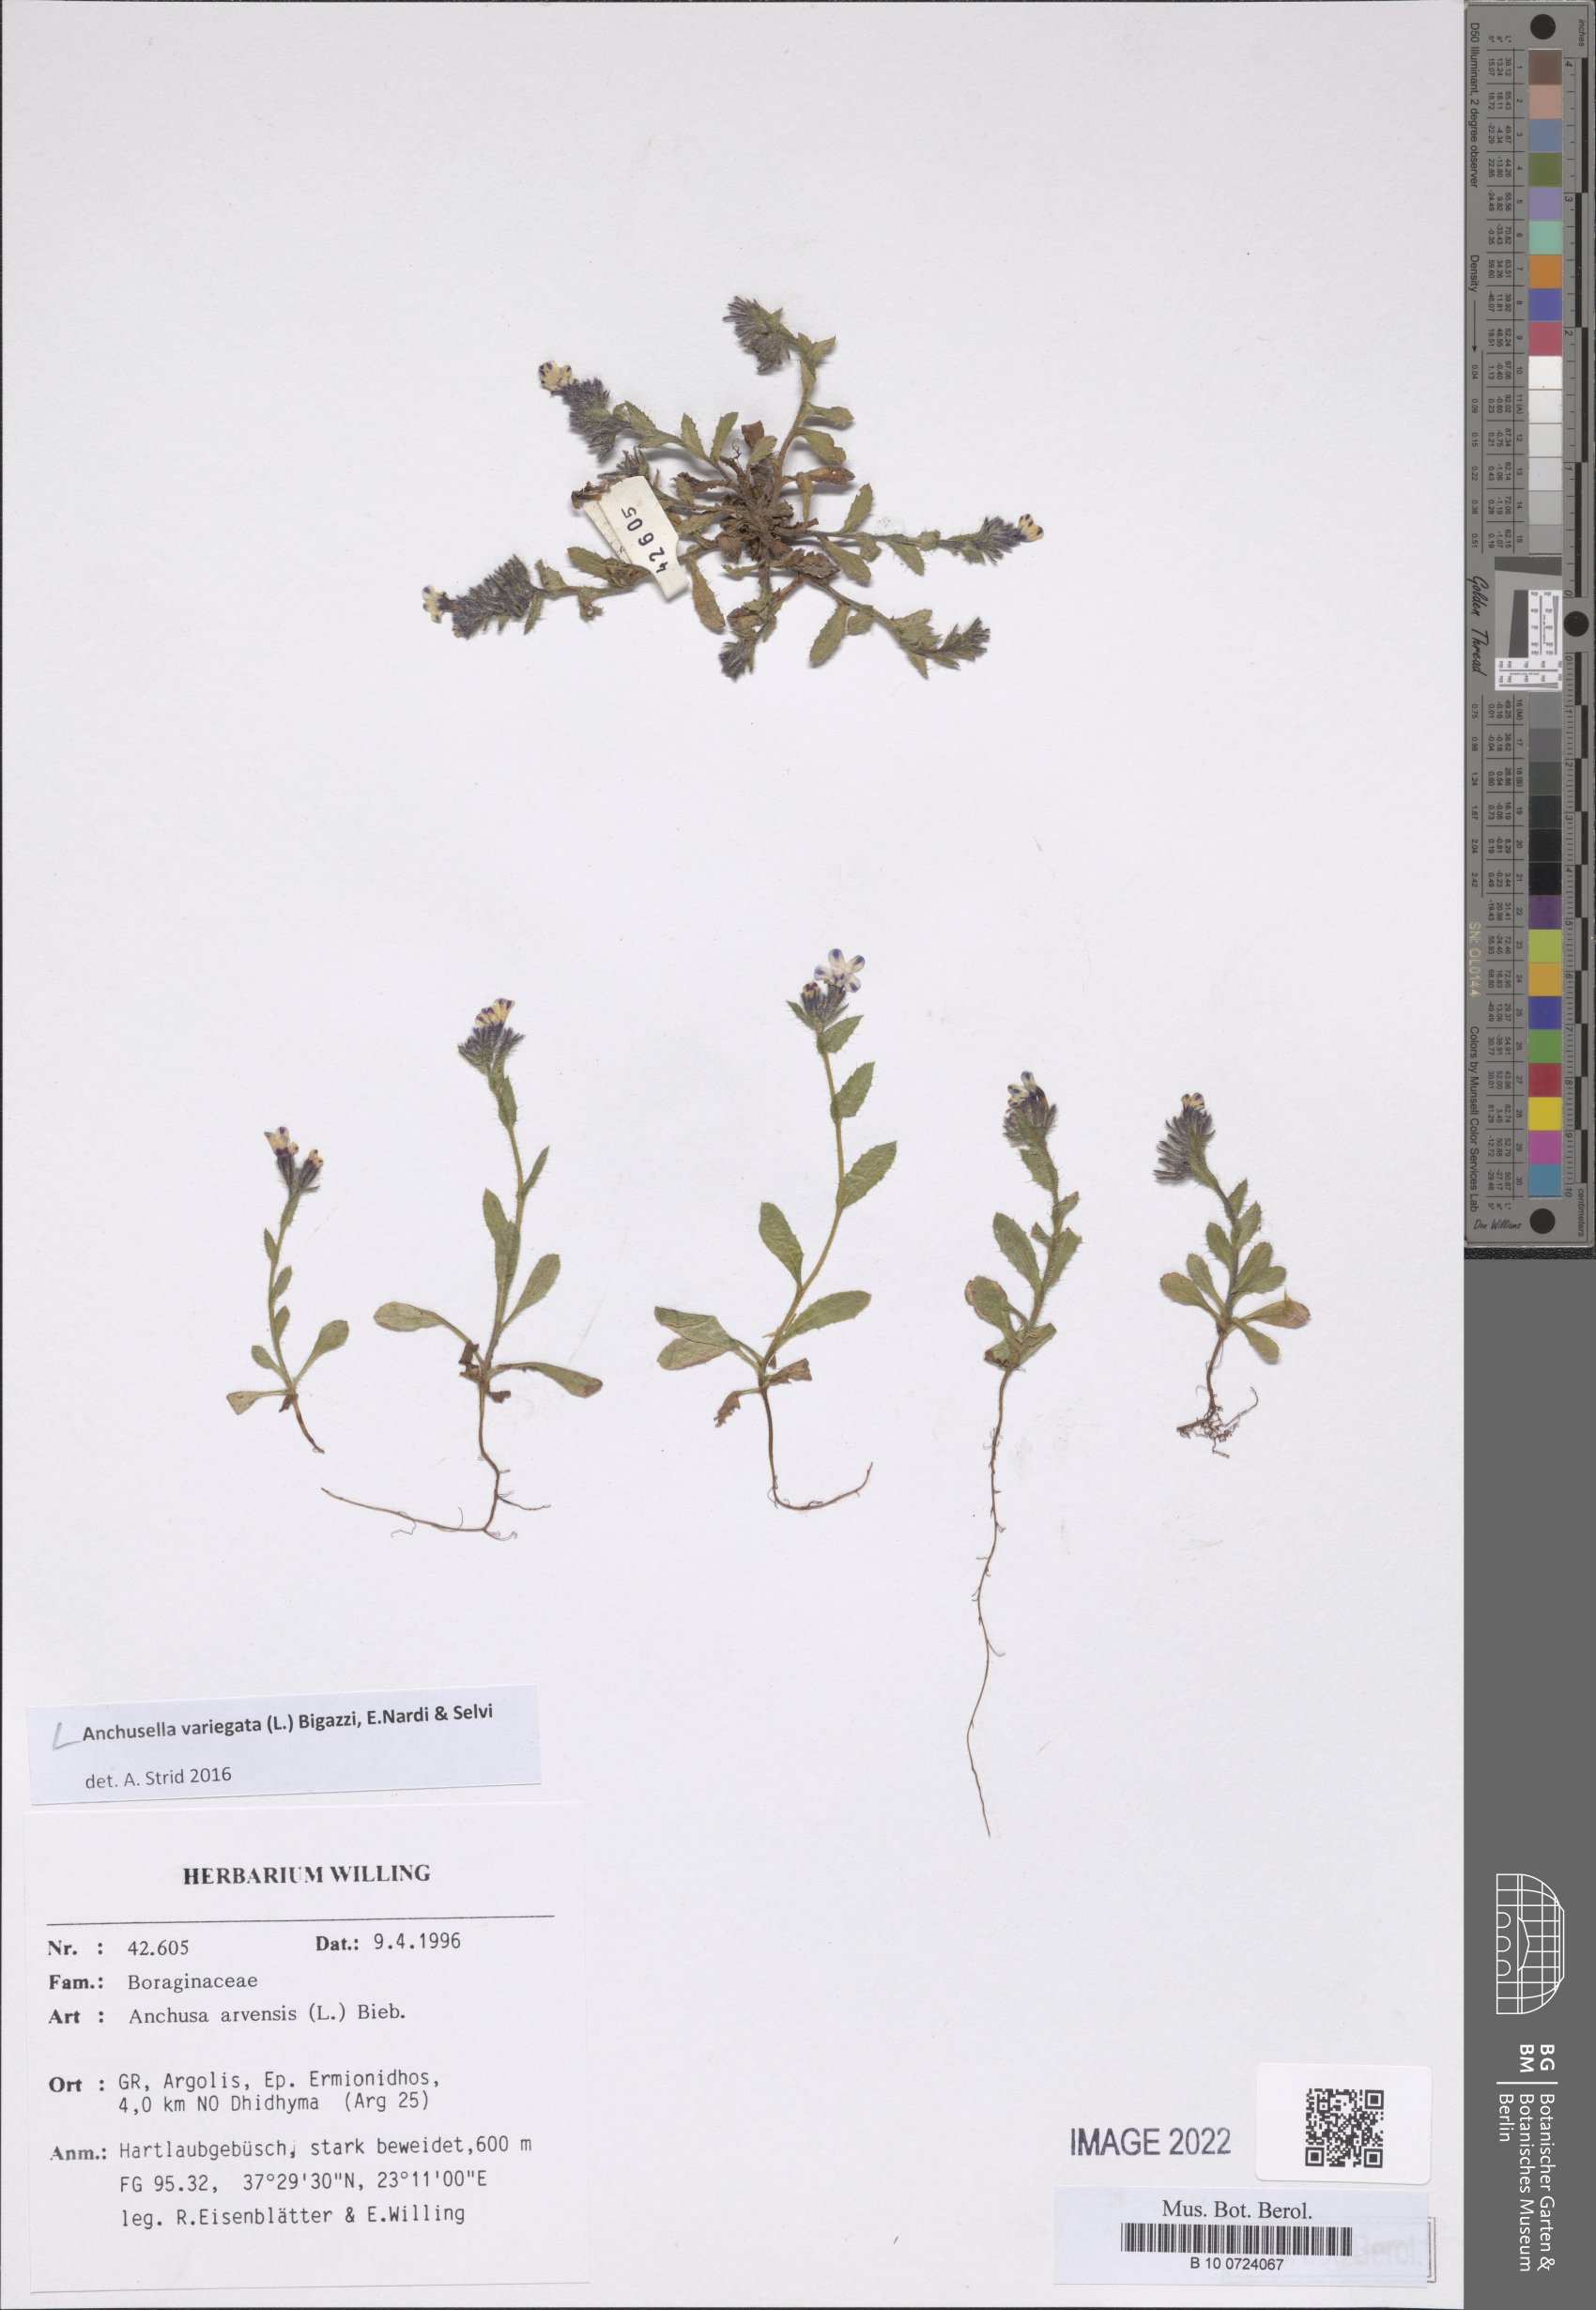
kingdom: Plantae
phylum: Tracheophyta
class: Magnoliopsida
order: Boraginales
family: Boraginaceae
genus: Anchusella
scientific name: Anchusella variegata
